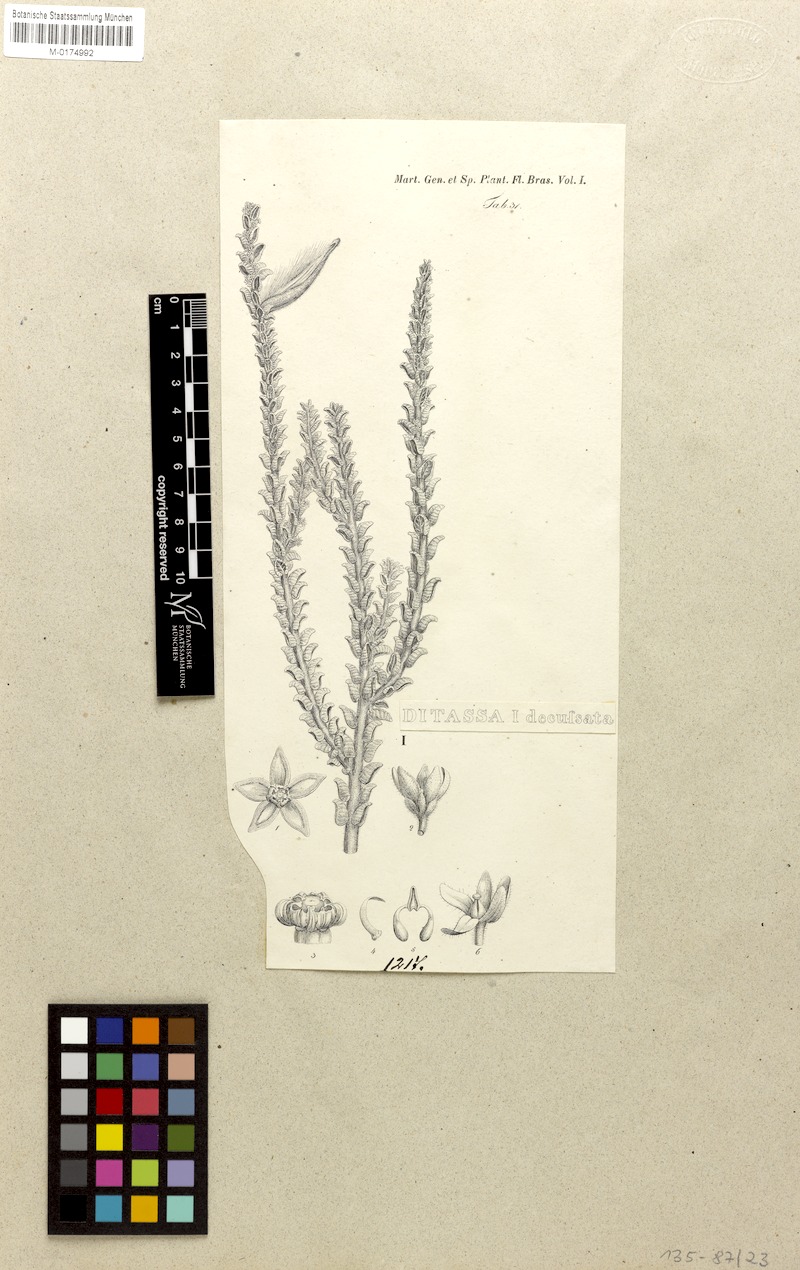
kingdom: Plantae
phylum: Tracheophyta
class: Magnoliopsida
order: Gentianales
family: Apocynaceae
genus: Minaria
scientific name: Minaria decussata
